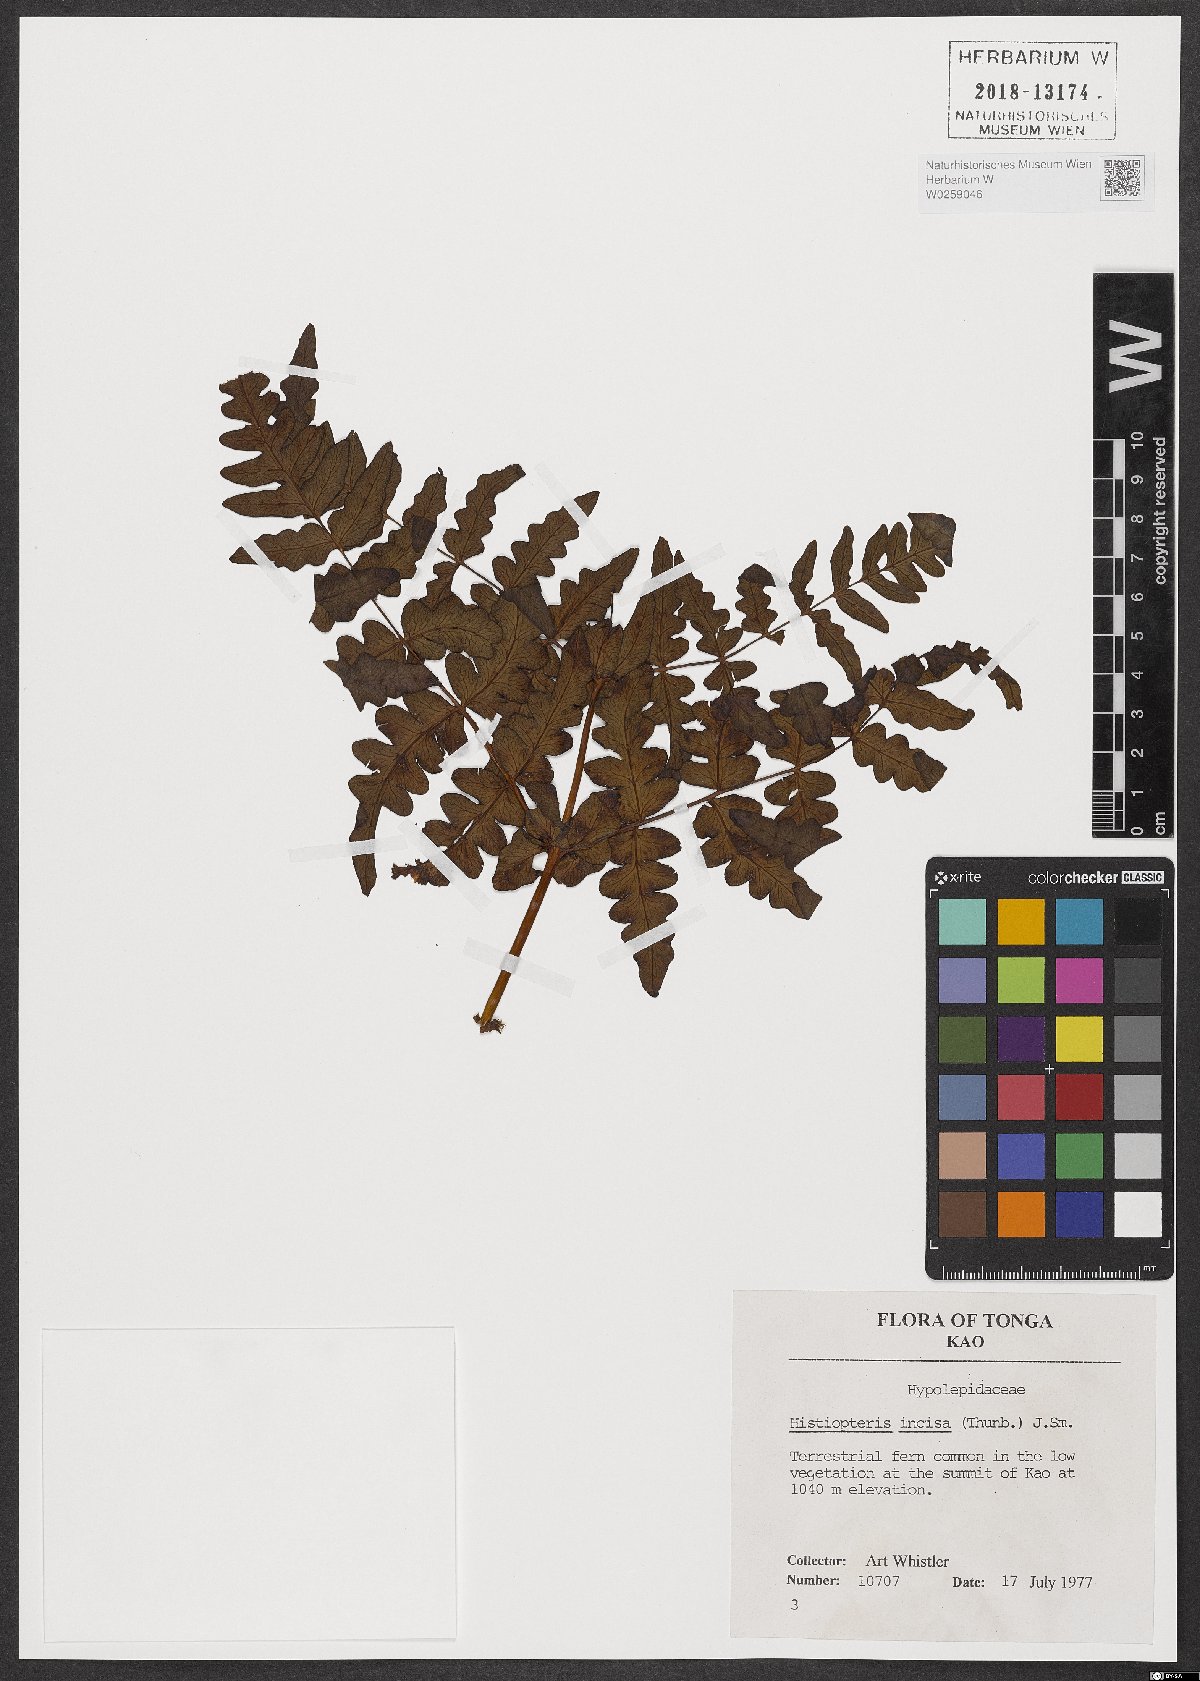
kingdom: Plantae
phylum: Tracheophyta
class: Polypodiopsida
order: Polypodiales
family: Dennstaedtiaceae
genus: Histiopteris
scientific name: Histiopteris incisa
